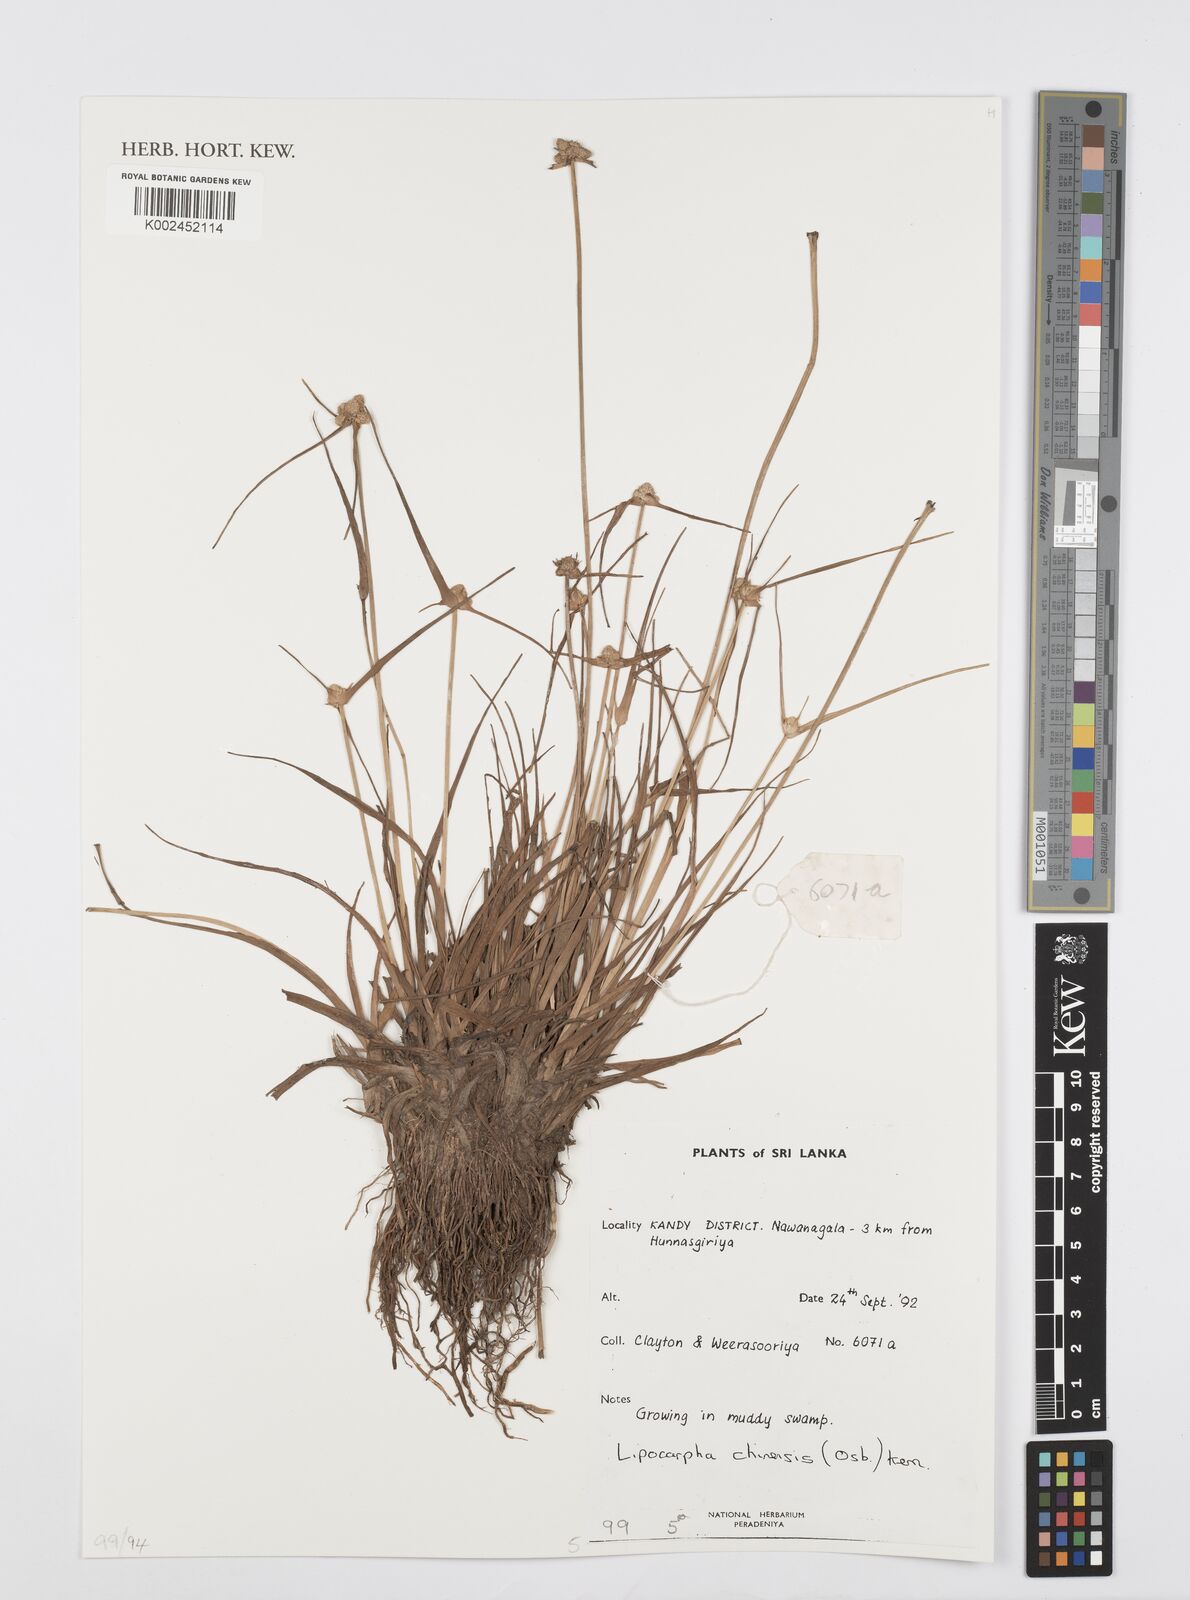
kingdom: Plantae
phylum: Tracheophyta
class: Liliopsida
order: Poales
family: Cyperaceae
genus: Cyperus
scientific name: Cyperus
